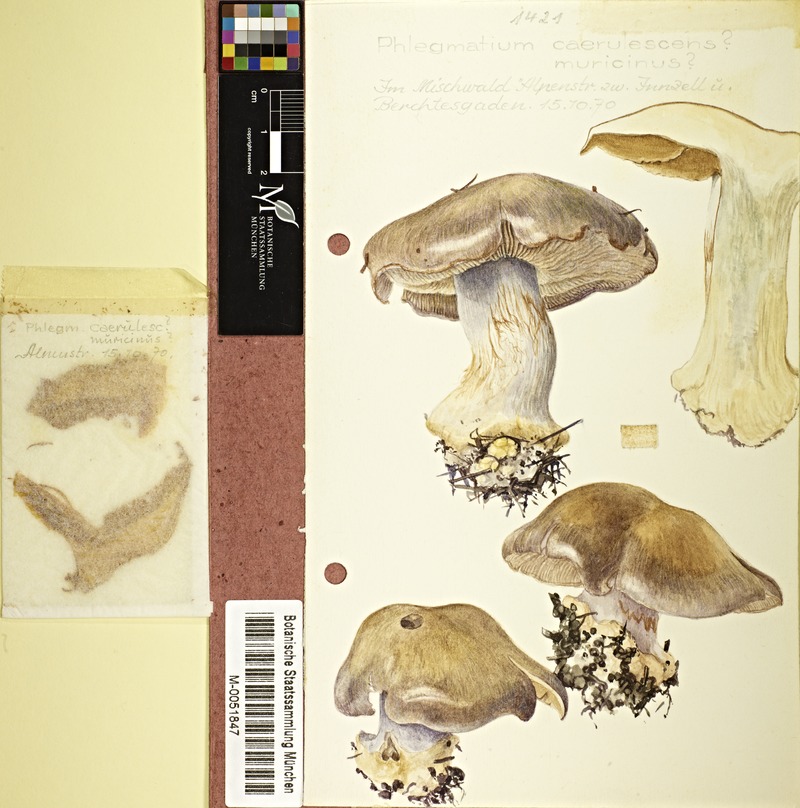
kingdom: Fungi
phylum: Basidiomycota
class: Agaricomycetes
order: Agaricales
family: Cortinariaceae
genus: Cortinarius
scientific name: Cortinarius caerulescens
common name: Mealy bigfoot webcap
